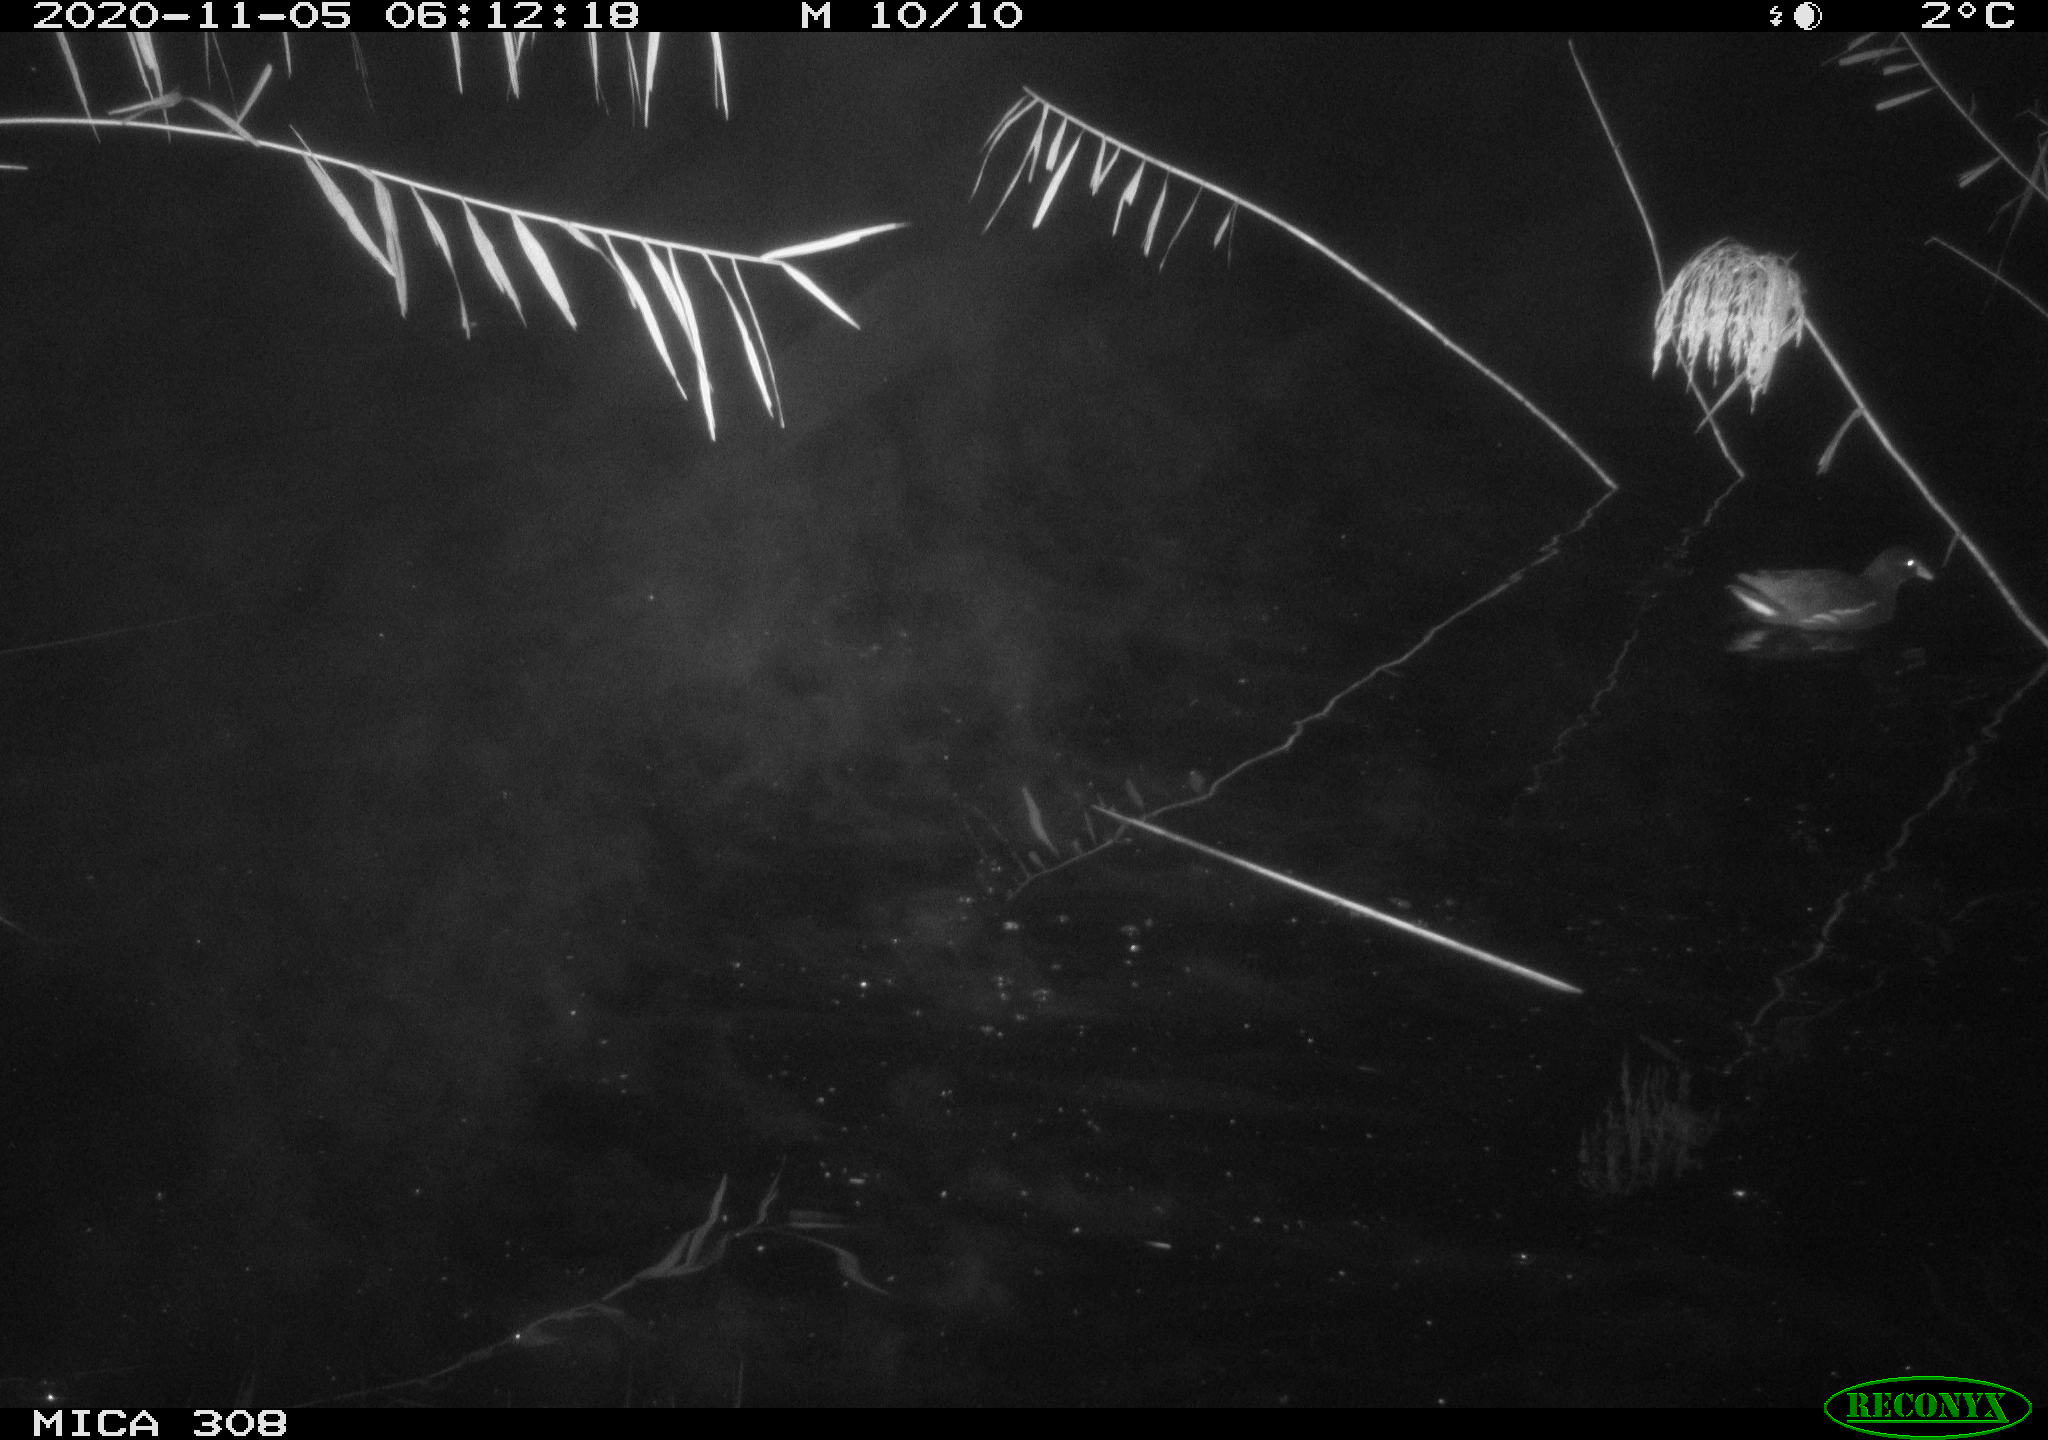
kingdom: Animalia
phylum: Chordata
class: Aves
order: Gruiformes
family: Rallidae
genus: Gallinula
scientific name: Gallinula chloropus
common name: Common moorhen
